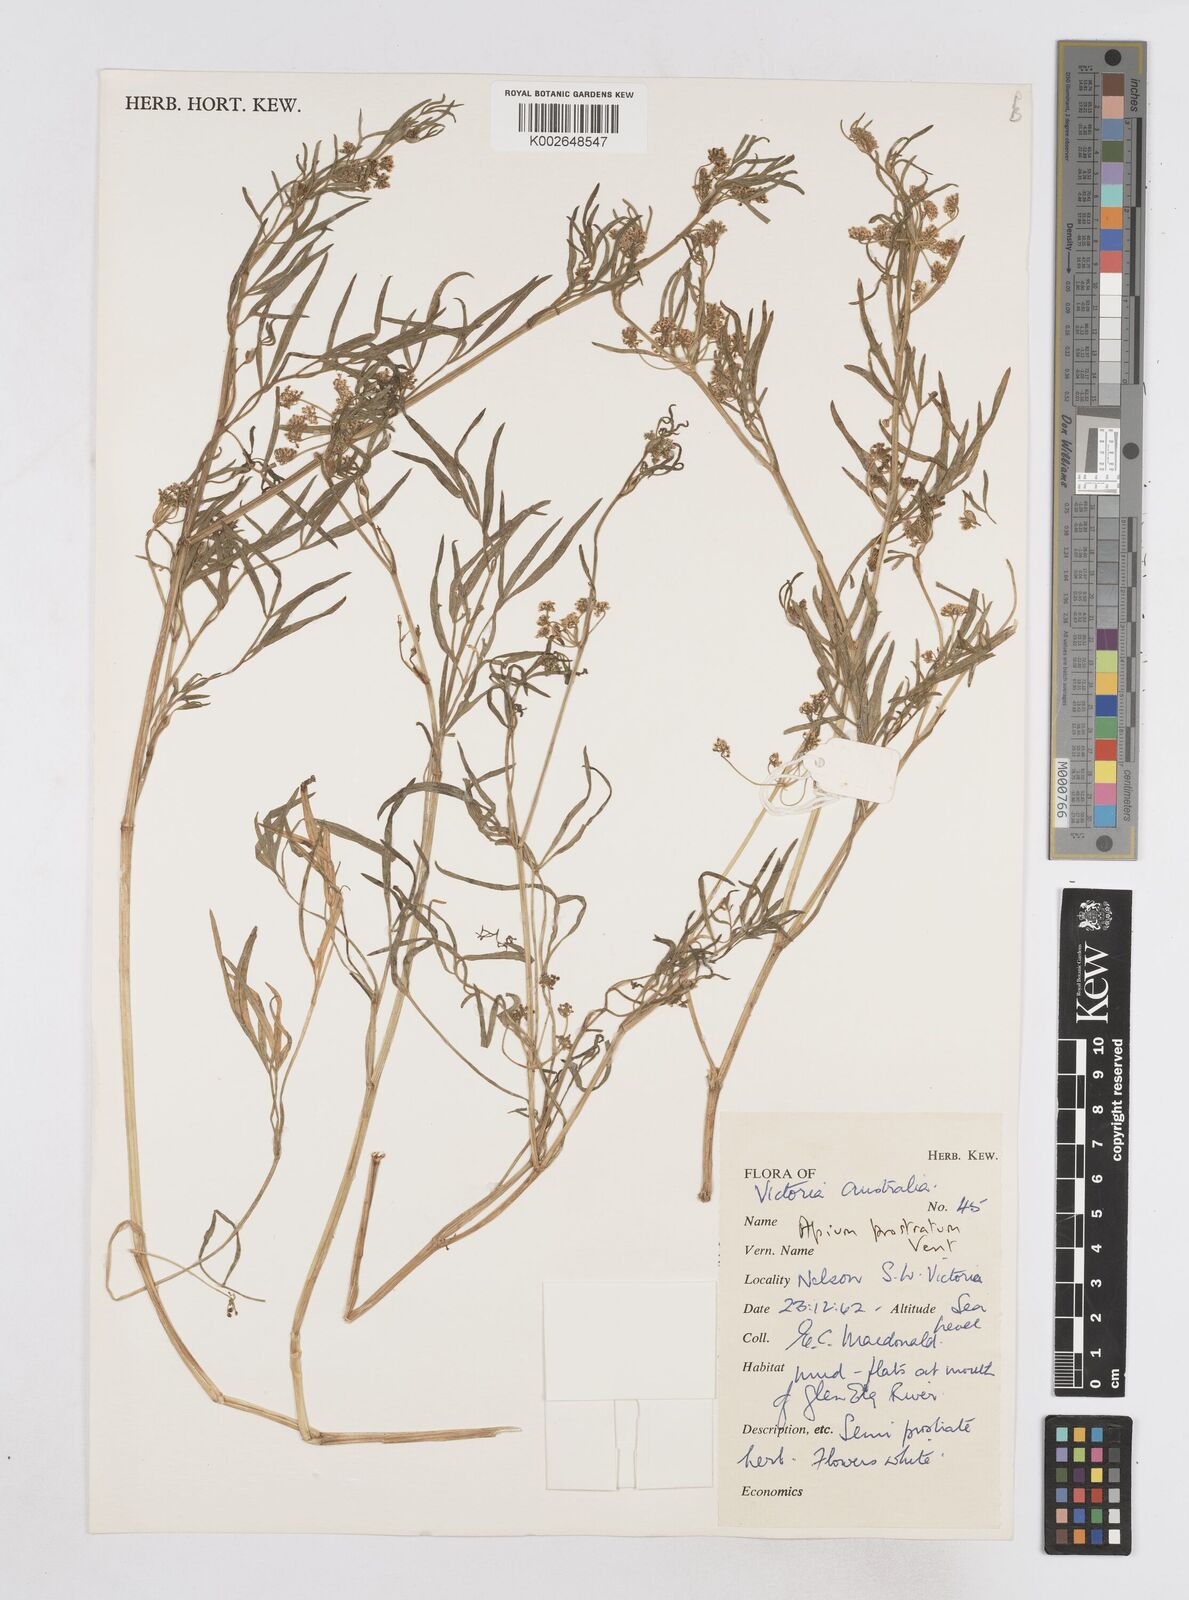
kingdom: Plantae
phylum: Tracheophyta
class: Magnoliopsida
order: Apiales
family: Apiaceae
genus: Apium
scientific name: Apium prostratum
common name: Prostrate marshwort
